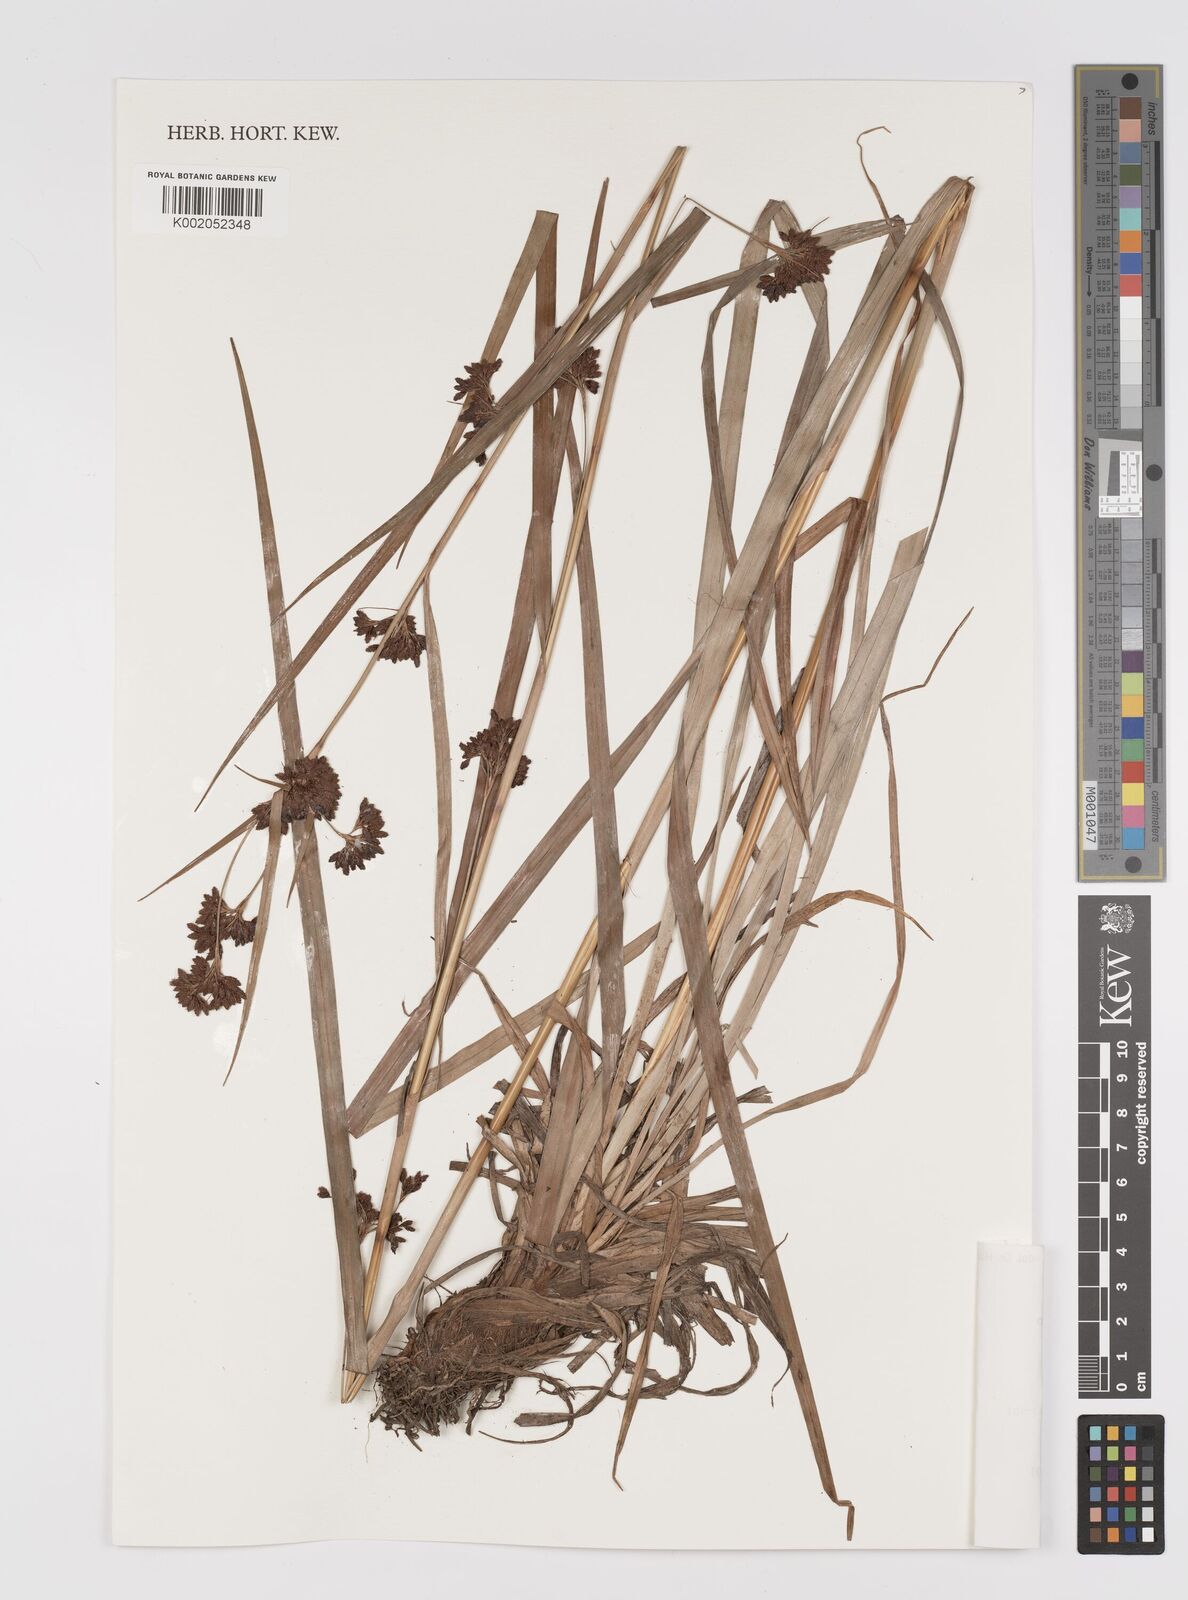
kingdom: Plantae
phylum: Tracheophyta
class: Liliopsida
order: Poales
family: Cyperaceae
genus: Scirpus
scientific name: Scirpus fuirenoides
